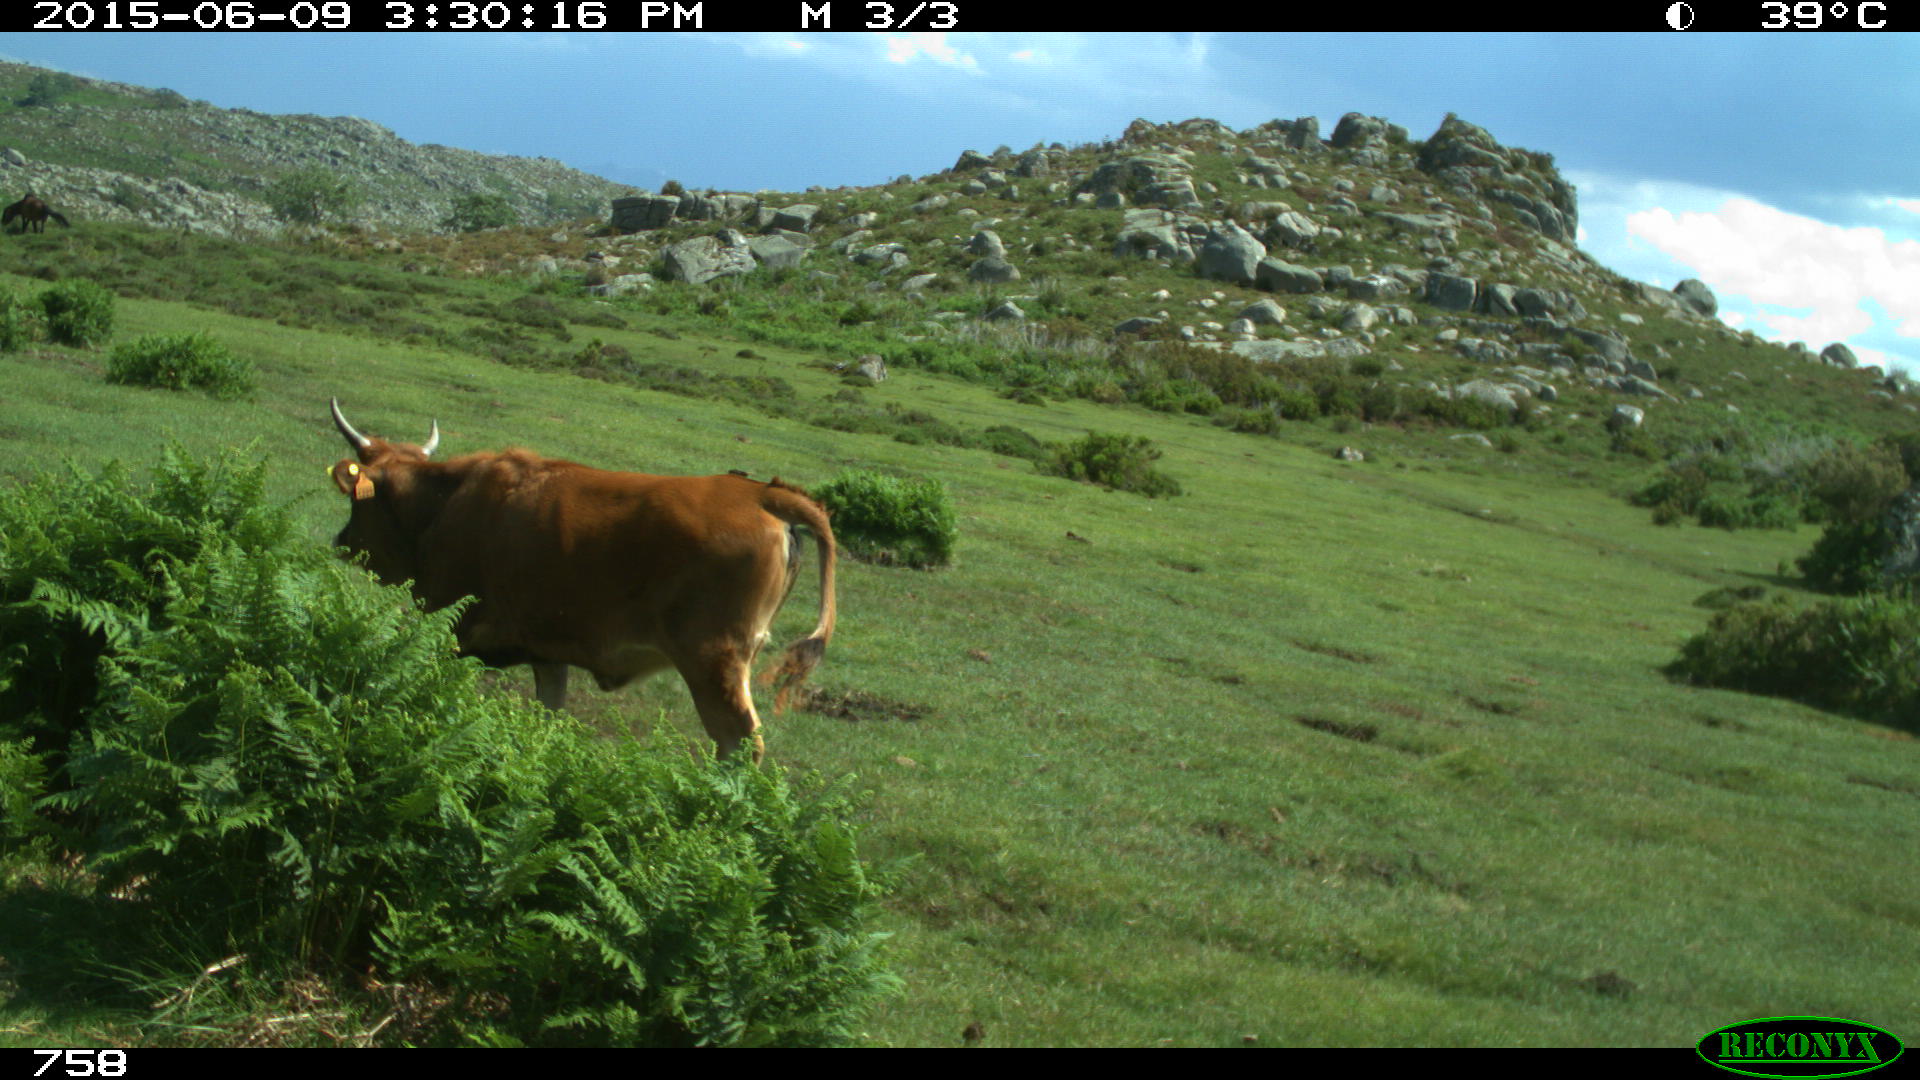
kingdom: Animalia
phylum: Chordata
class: Mammalia
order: Artiodactyla
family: Bovidae
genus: Bos
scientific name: Bos taurus
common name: Domesticated cattle
